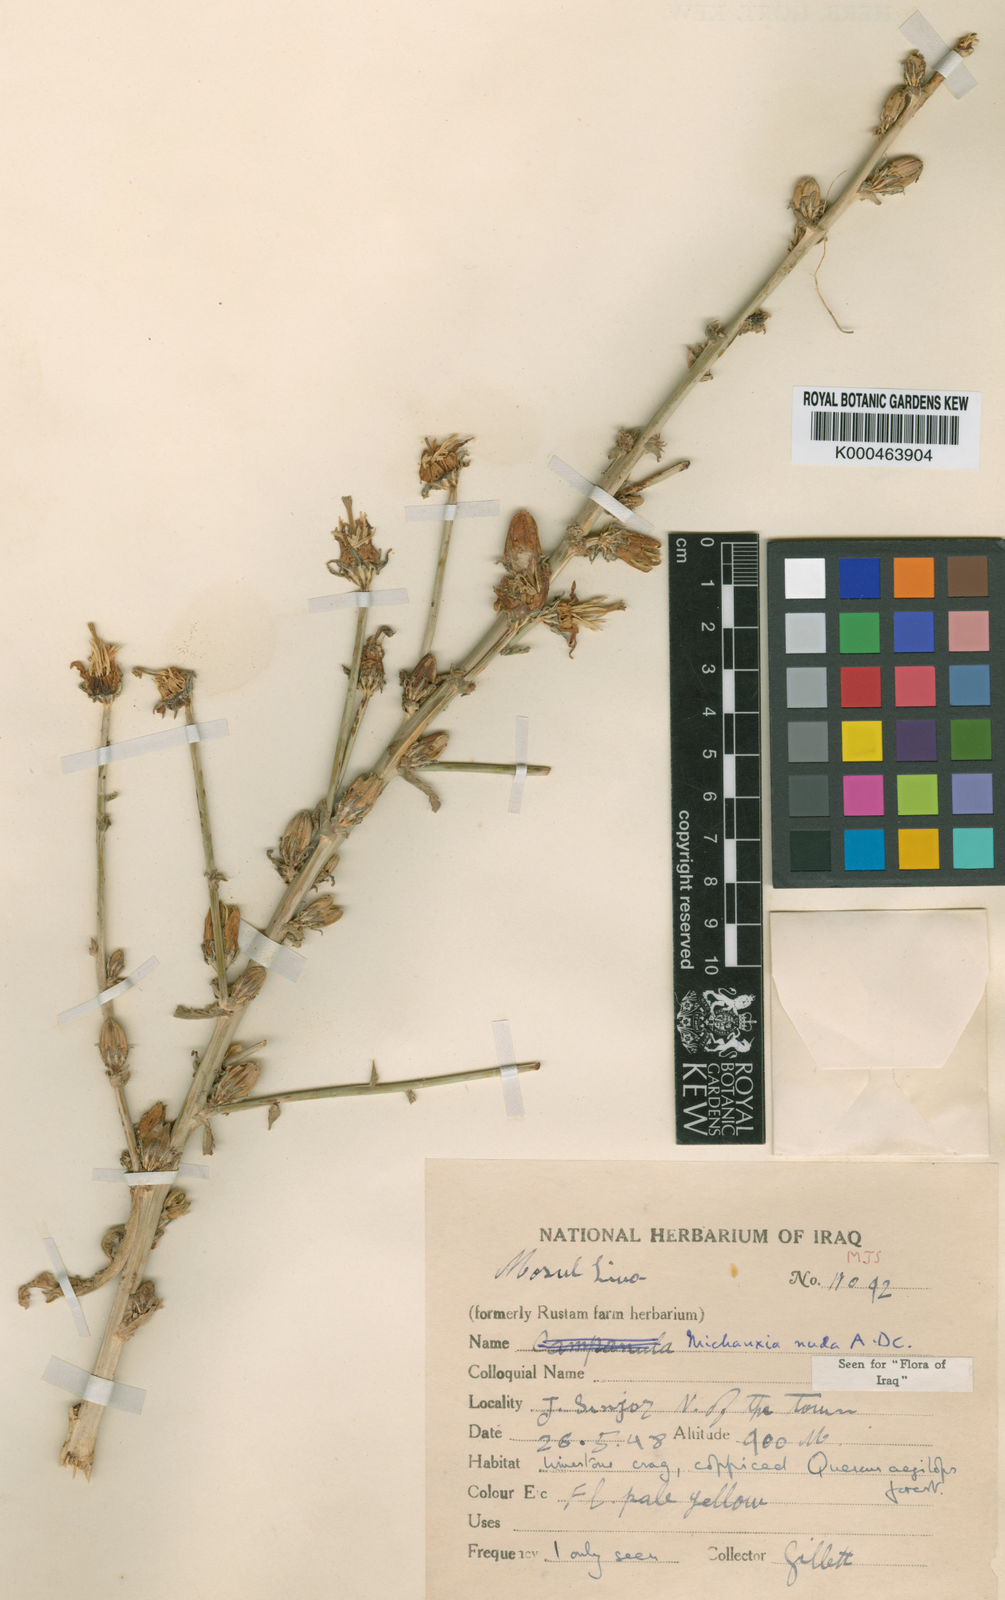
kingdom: Plantae
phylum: Tracheophyta
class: Magnoliopsida
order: Asterales
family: Campanulaceae
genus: Michauxia
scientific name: Michauxia nuda
